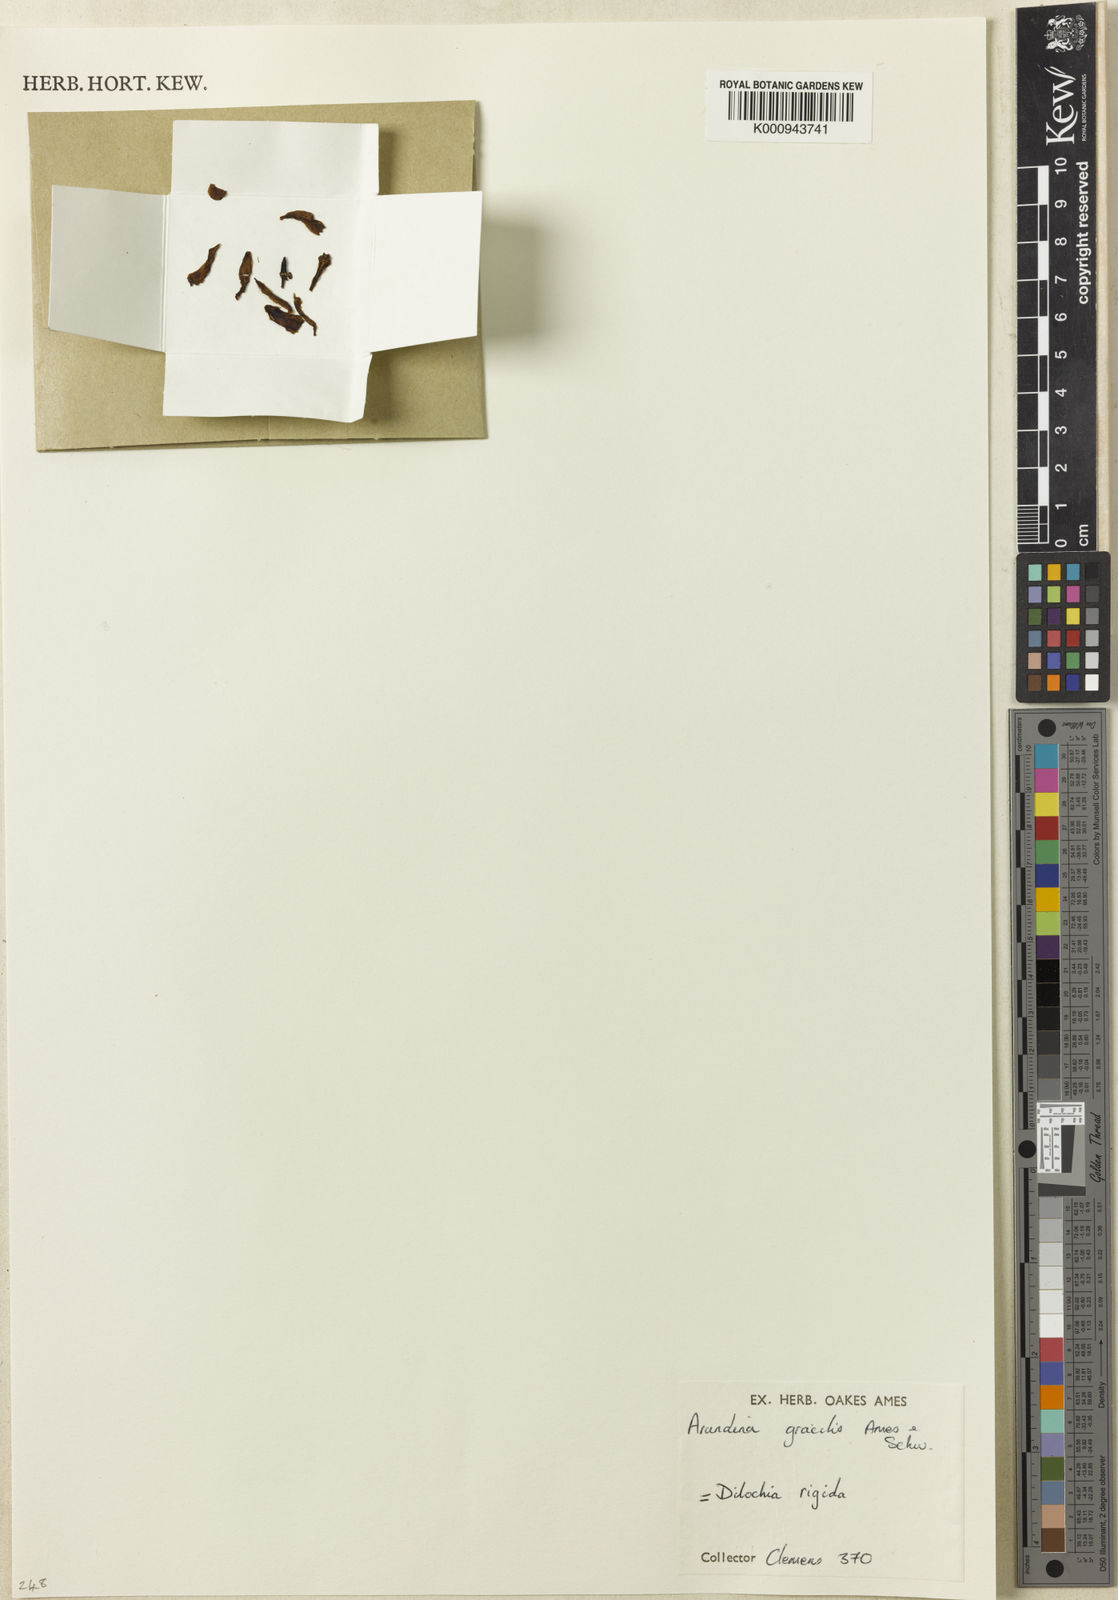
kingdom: Plantae
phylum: Tracheophyta
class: Liliopsida
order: Asparagales
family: Orchidaceae
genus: Dilochia
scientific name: Dilochia rigida
